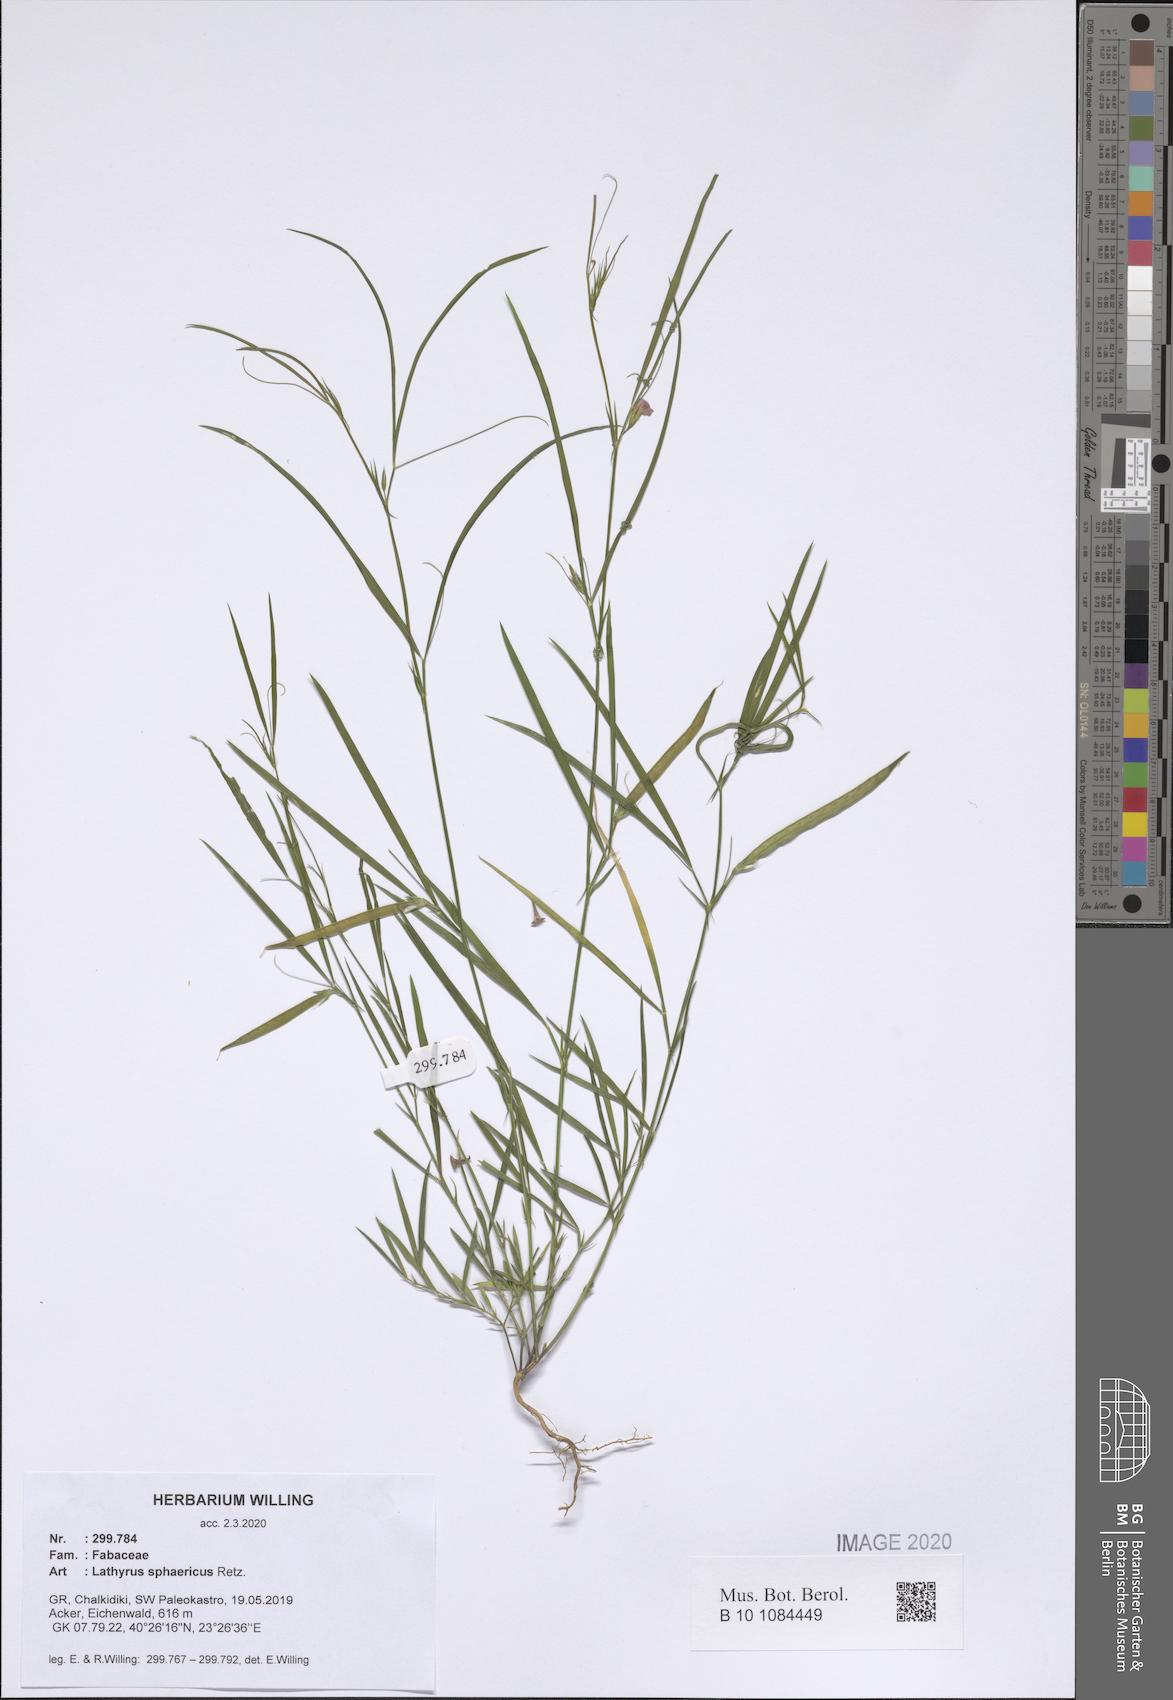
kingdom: Plantae
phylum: Tracheophyta
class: Magnoliopsida
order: Fabales
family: Fabaceae
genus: Lathyrus
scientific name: Lathyrus sphaericus
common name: Grass pea
